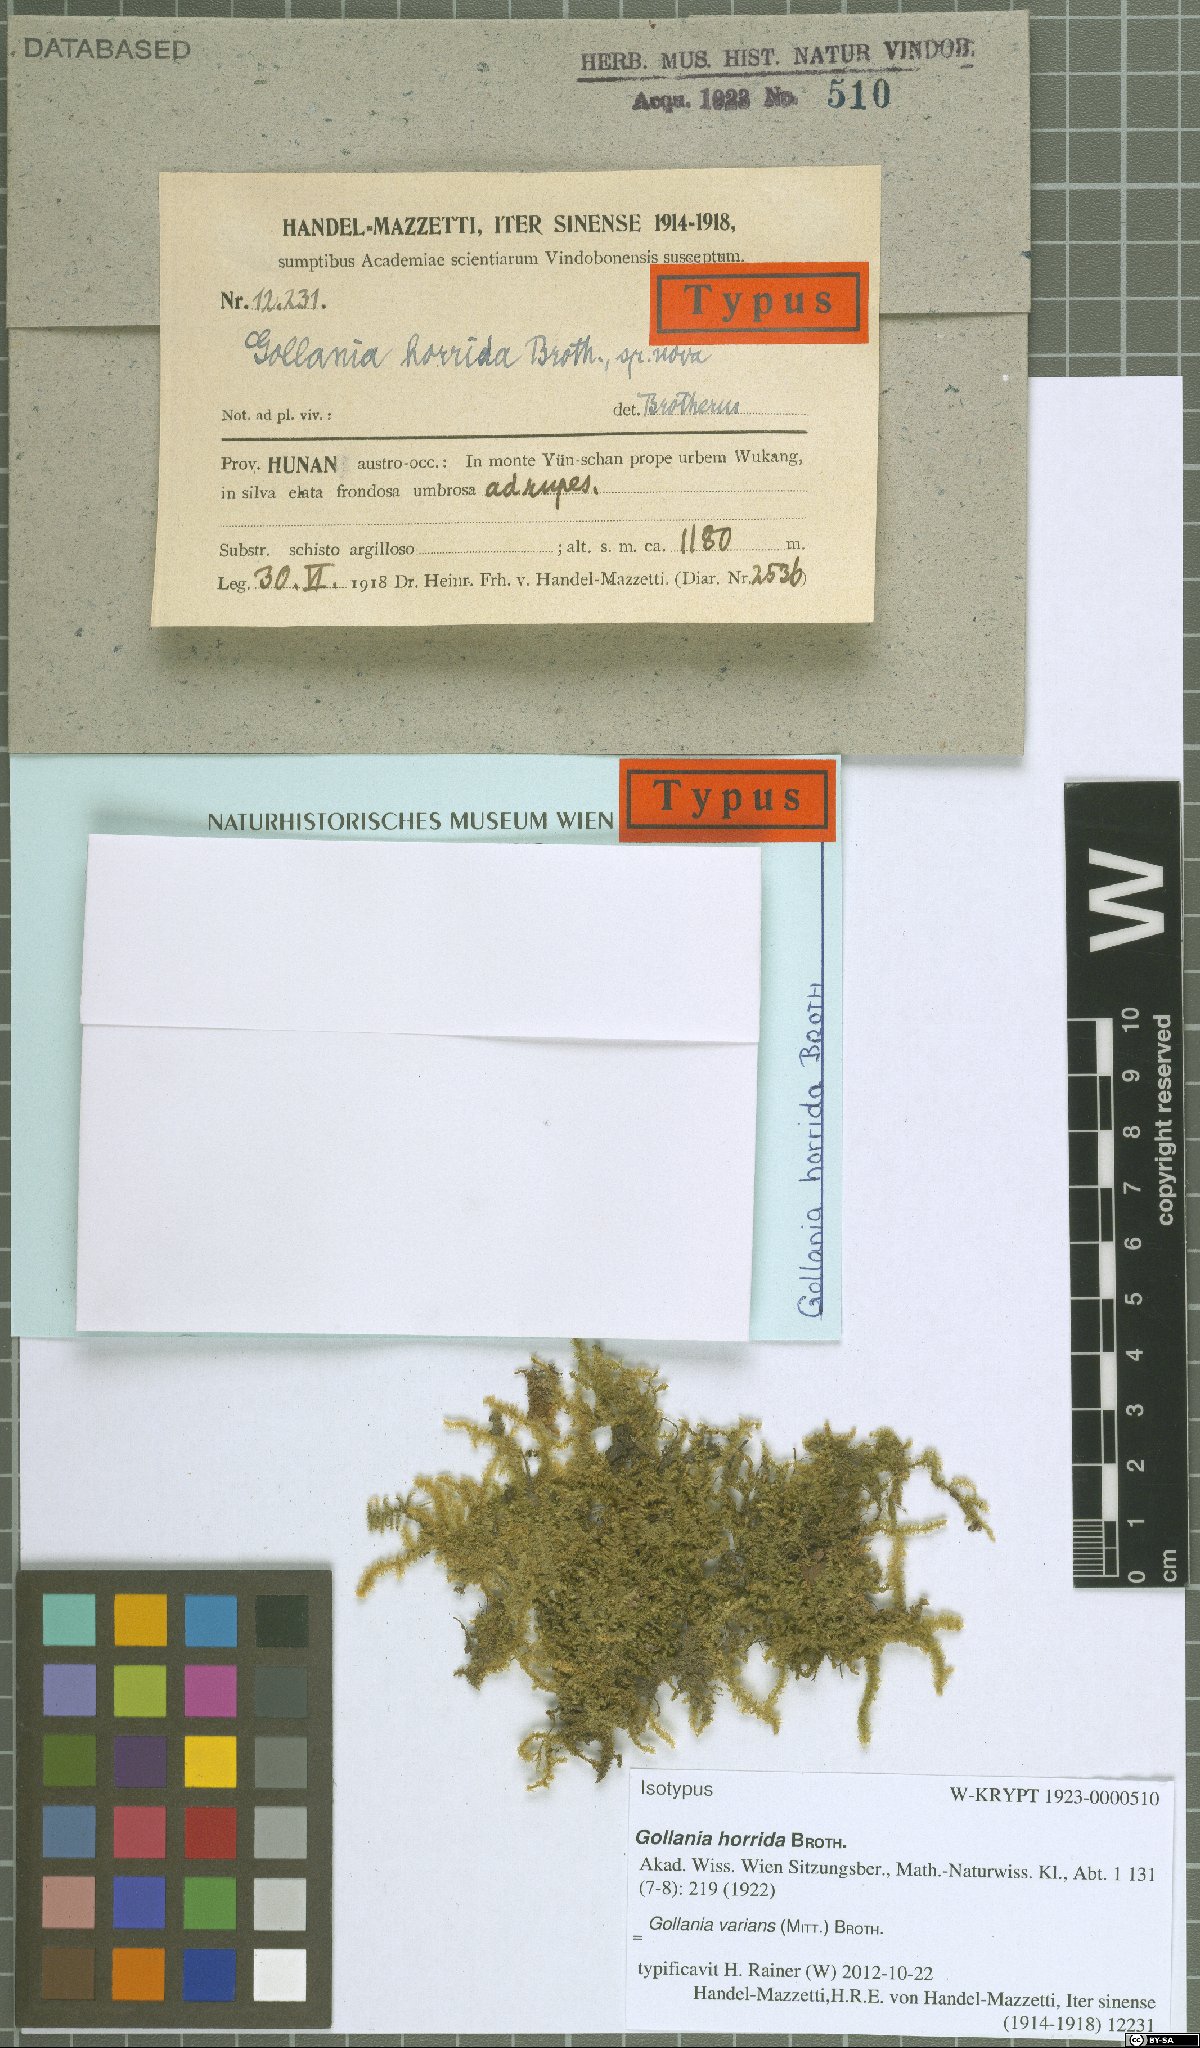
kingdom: Plantae
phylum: Bryophyta
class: Bryopsida
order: Hypnales
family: Hypnaceae
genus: Gollania
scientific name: Gollania varians
